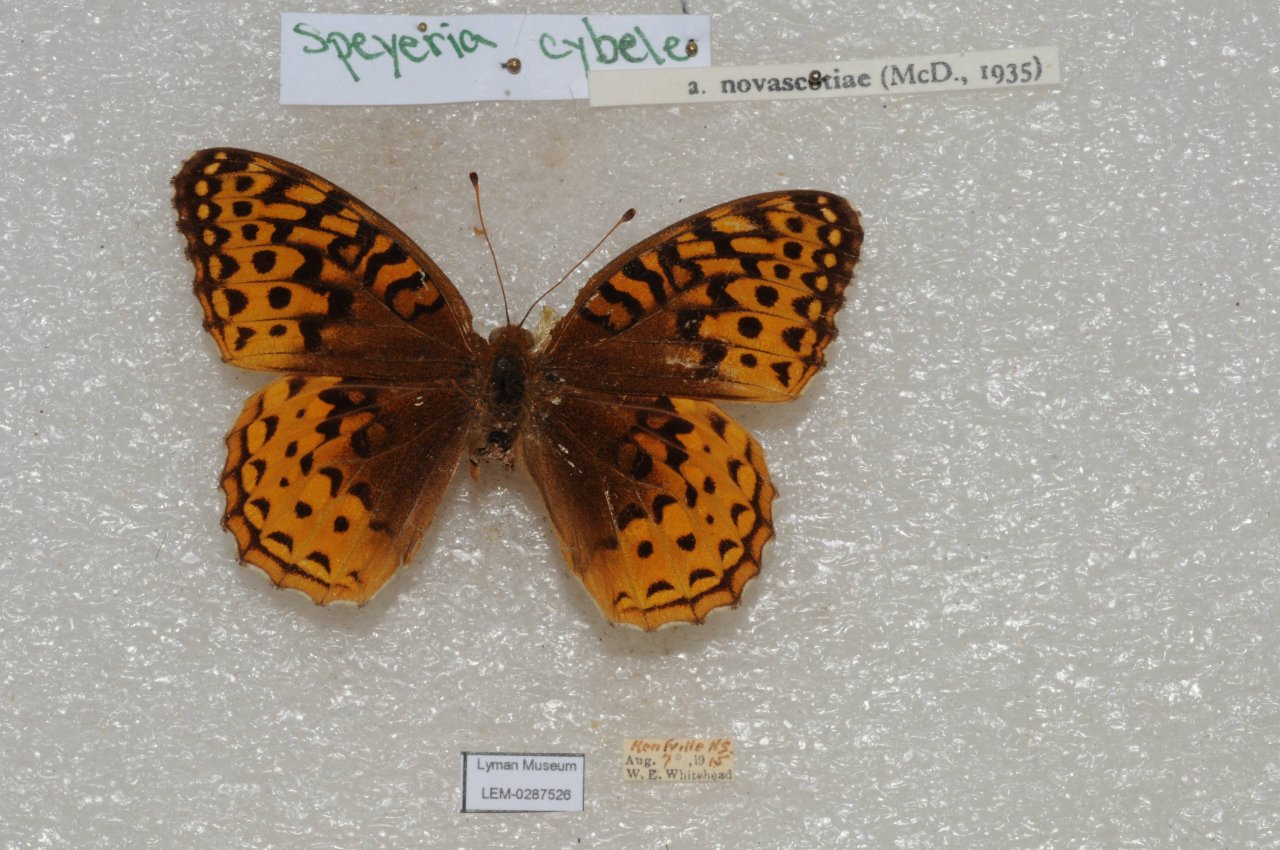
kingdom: Animalia
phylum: Arthropoda
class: Insecta
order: Lepidoptera
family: Nymphalidae
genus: Speyeria
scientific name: Speyeria cybele
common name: Great Spangled Fritillary
